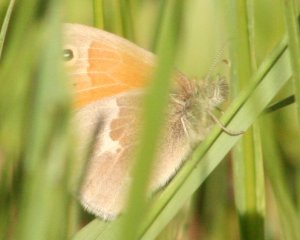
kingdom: Animalia
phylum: Arthropoda
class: Insecta
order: Lepidoptera
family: Nymphalidae
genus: Coenonympha
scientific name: Coenonympha tullia
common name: Large Heath
